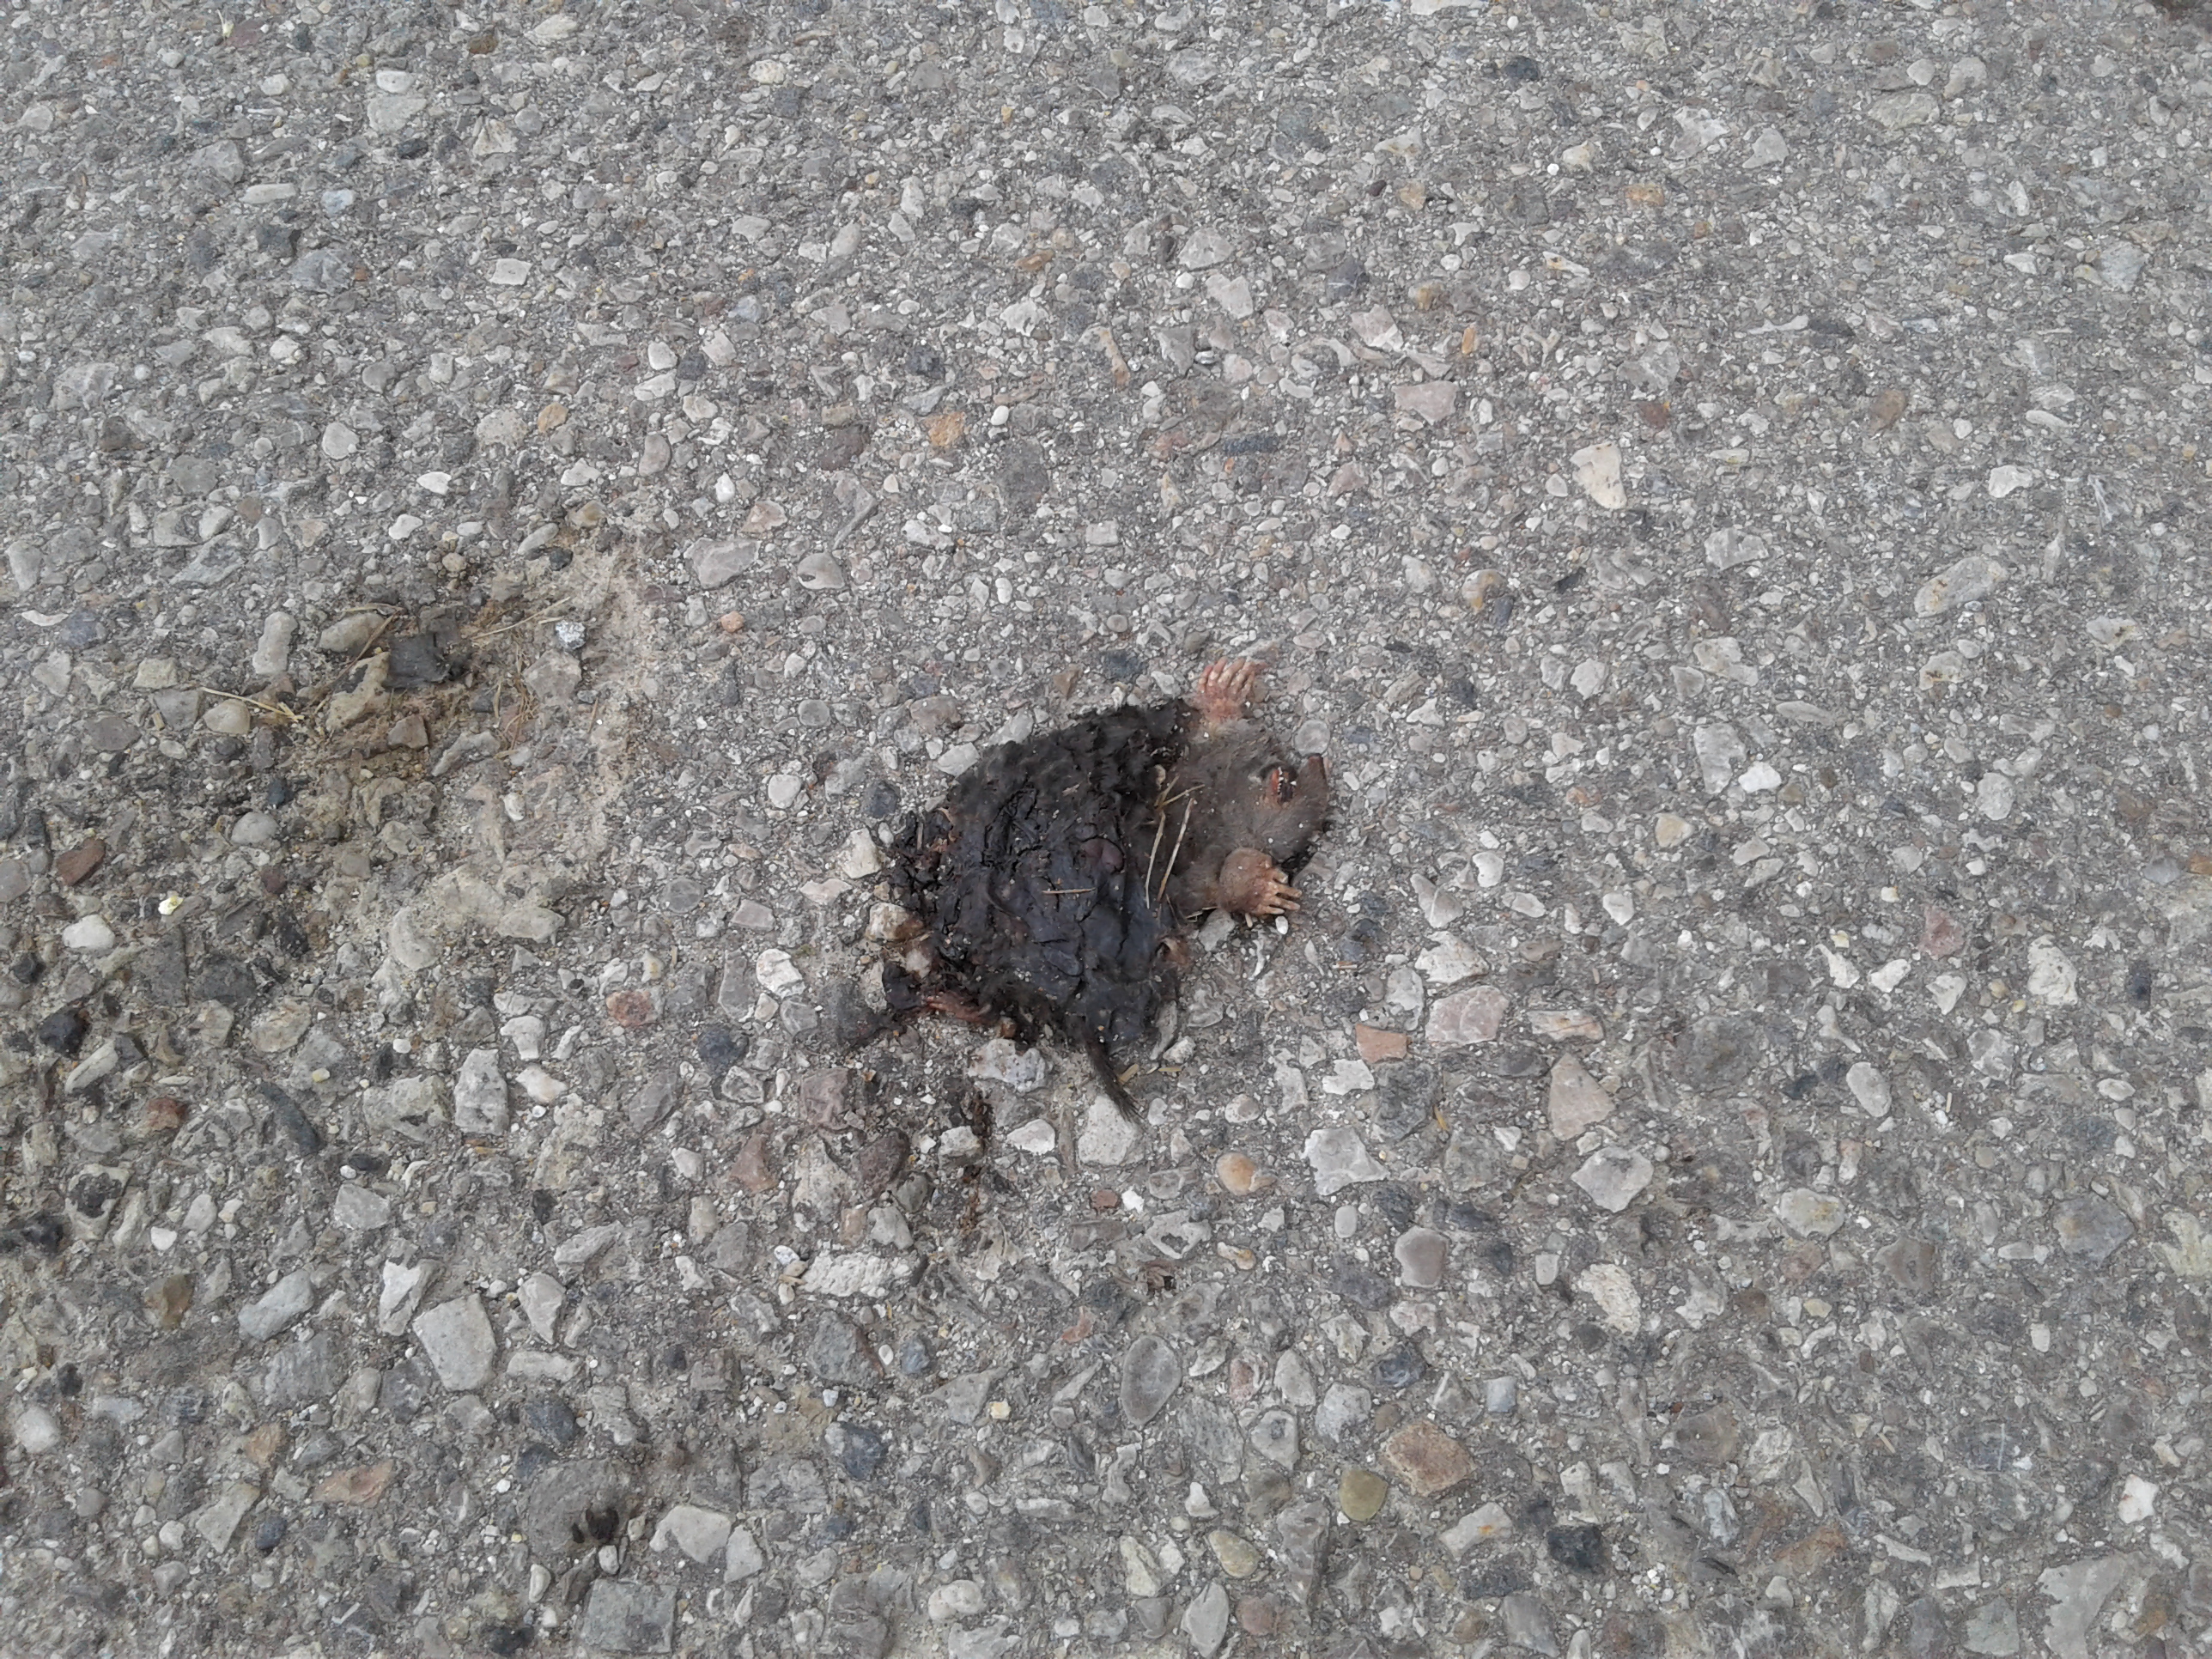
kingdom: Animalia
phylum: Chordata
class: Mammalia
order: Soricomorpha
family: Talpidae
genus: Talpa
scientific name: Talpa europaea
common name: European mole
